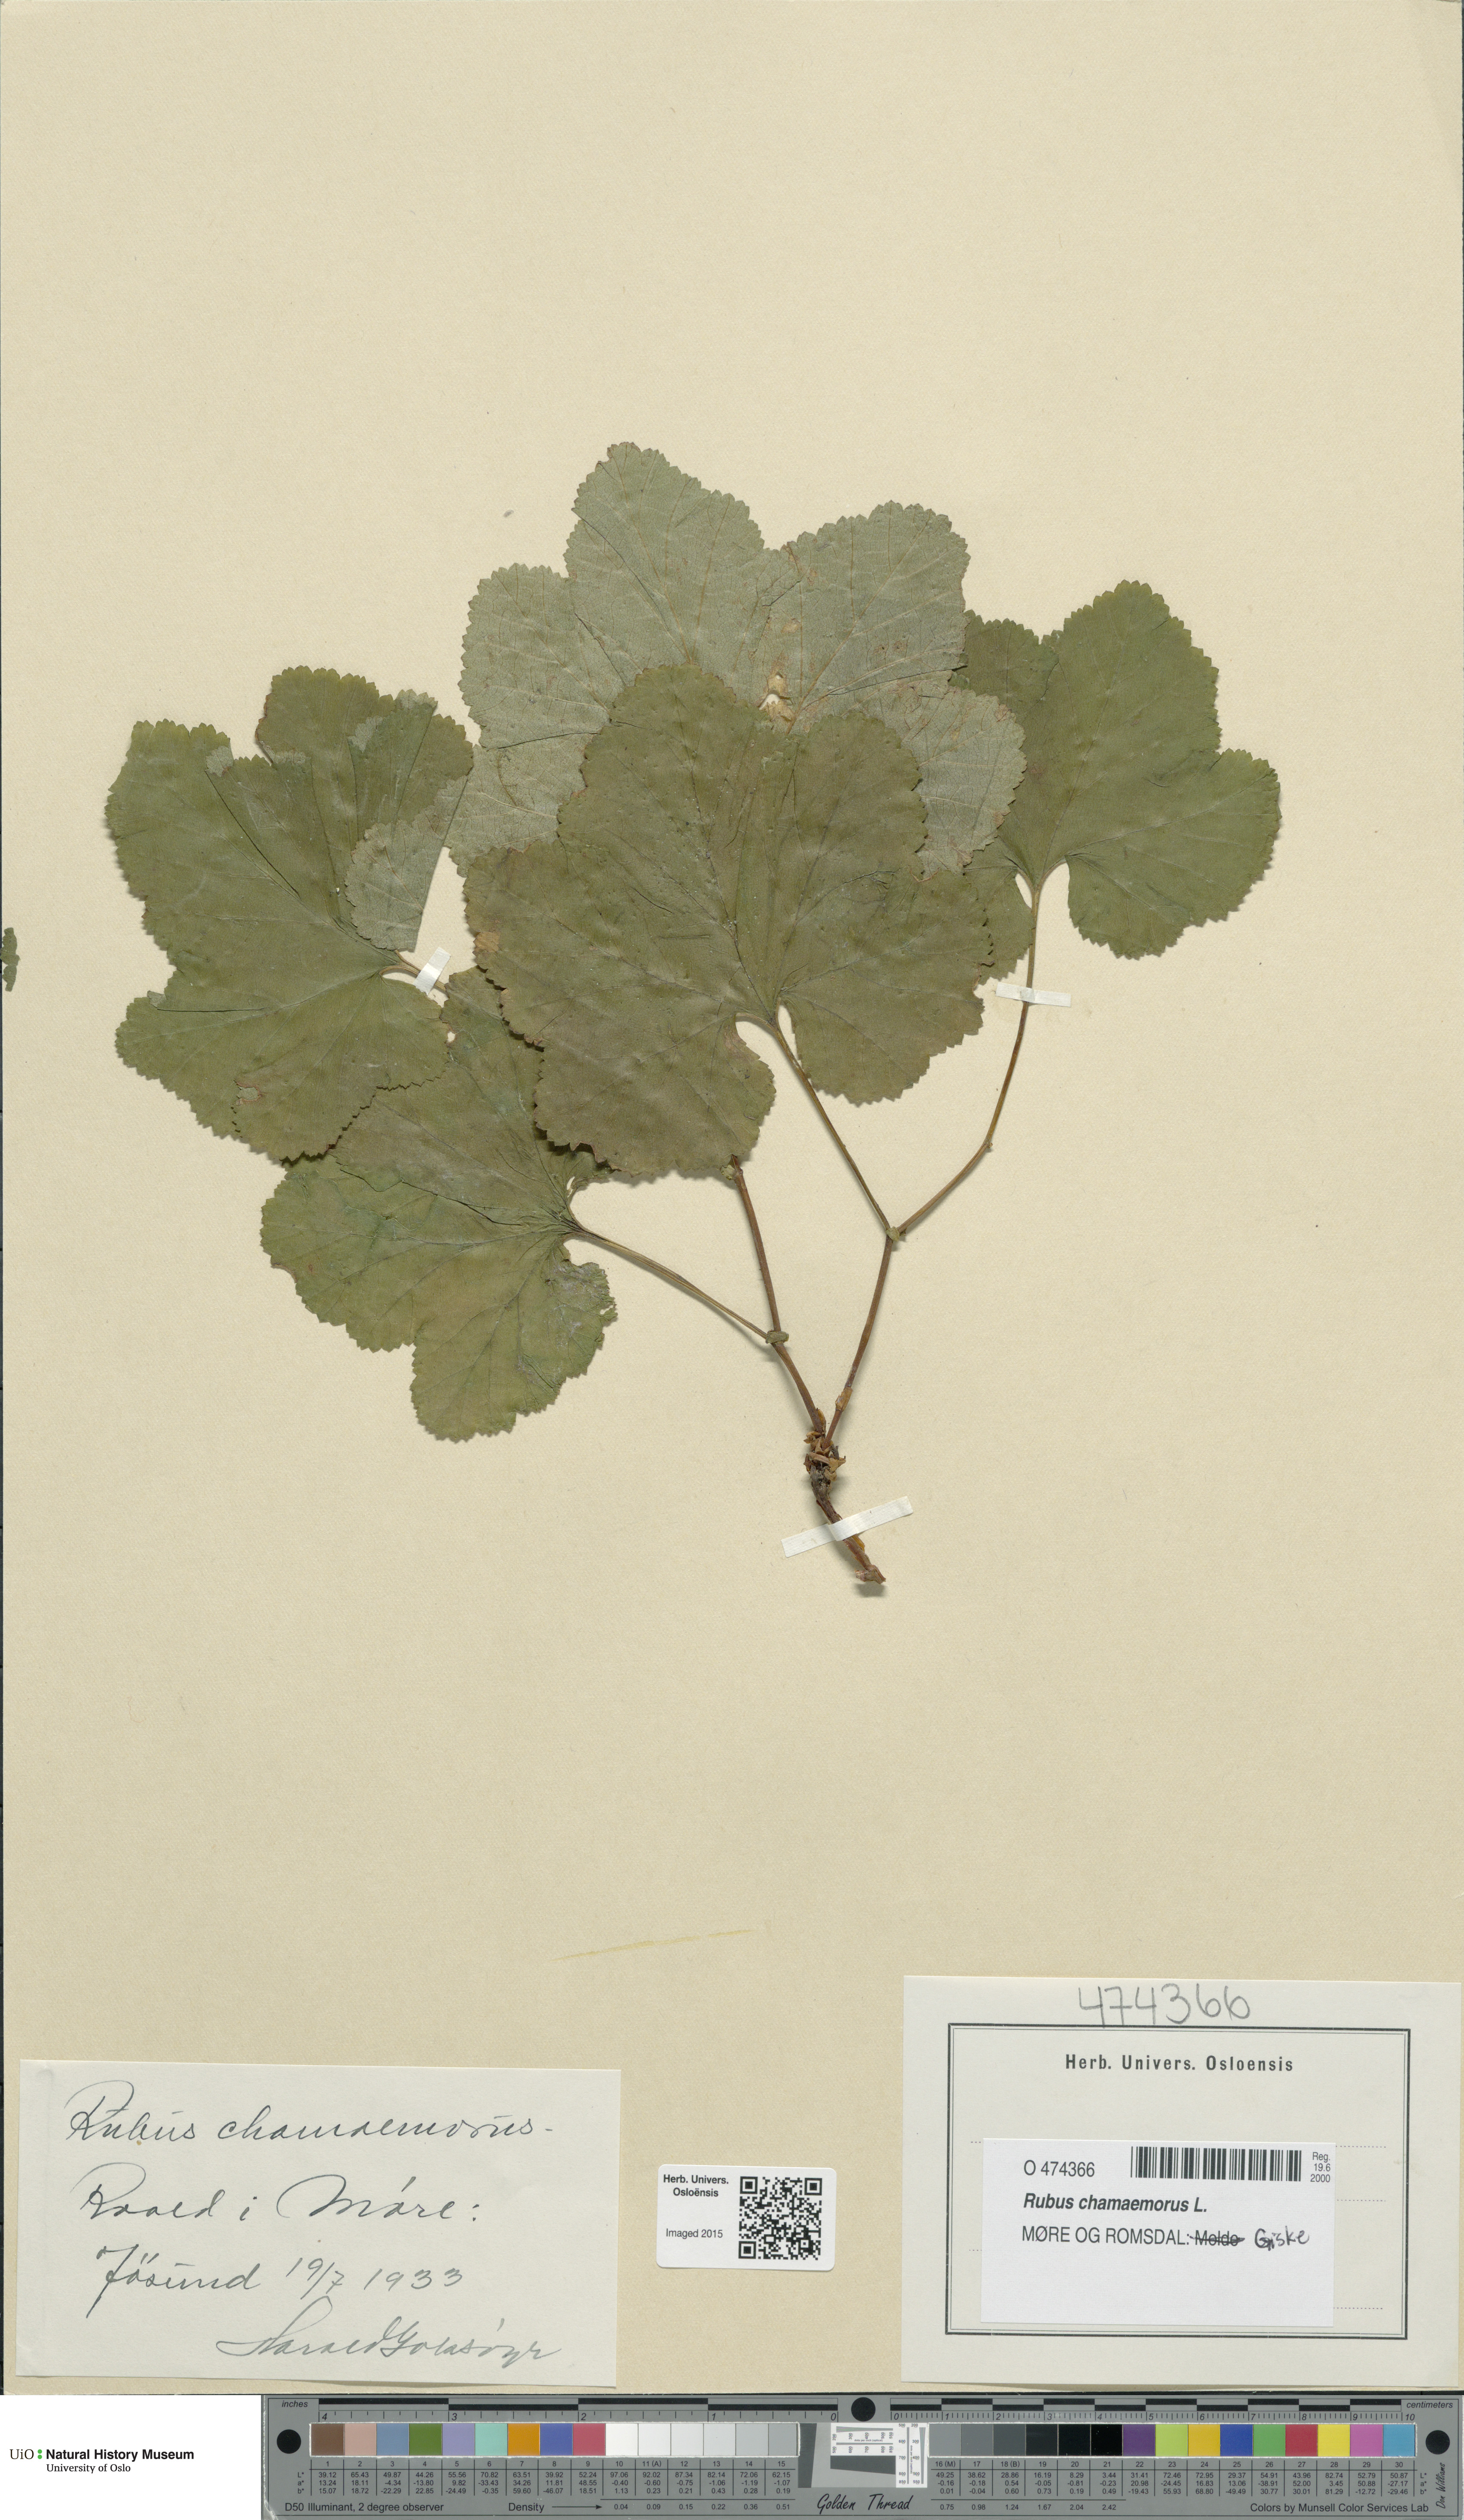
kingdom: Plantae
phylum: Tracheophyta
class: Magnoliopsida
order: Rosales
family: Rosaceae
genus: Rubus
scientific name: Rubus chamaemorus
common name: Cloudberry
